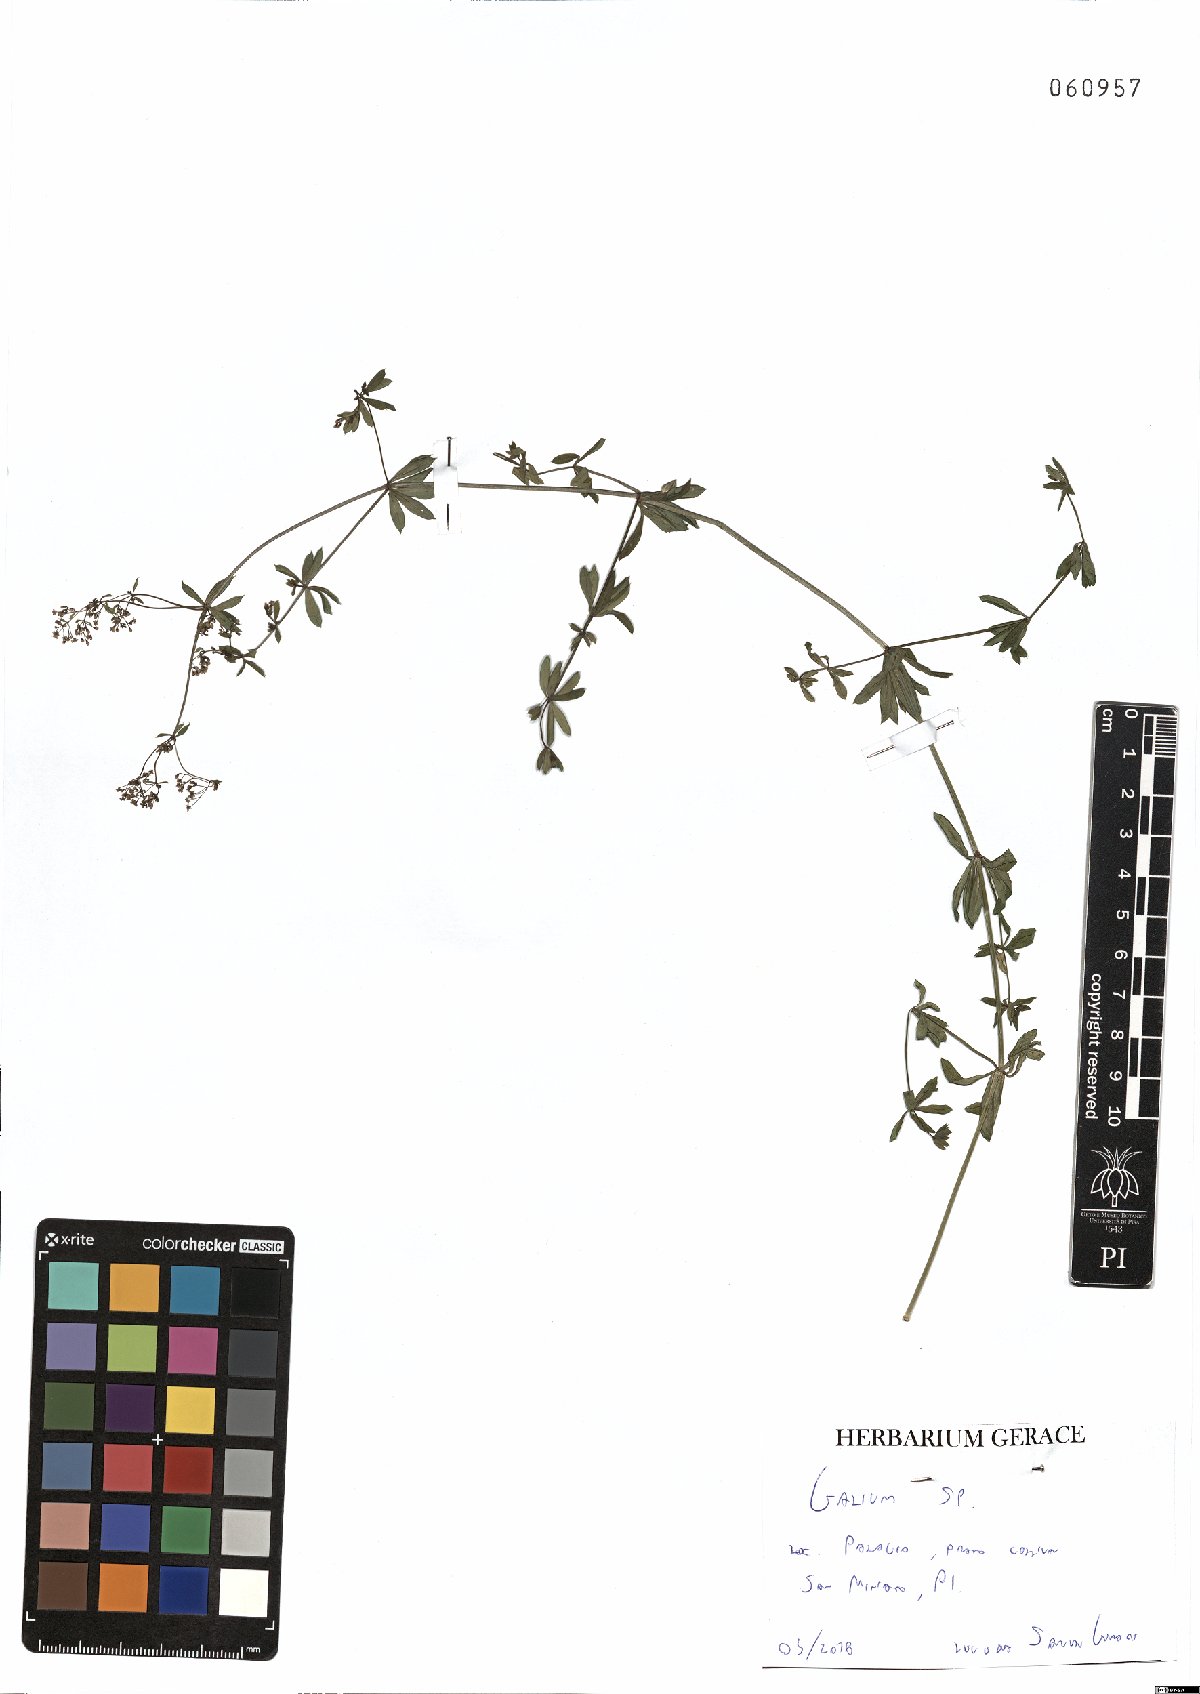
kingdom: Plantae
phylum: Tracheophyta
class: Magnoliopsida
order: Gentianales
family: Rubiaceae
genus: Galium
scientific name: Galium
